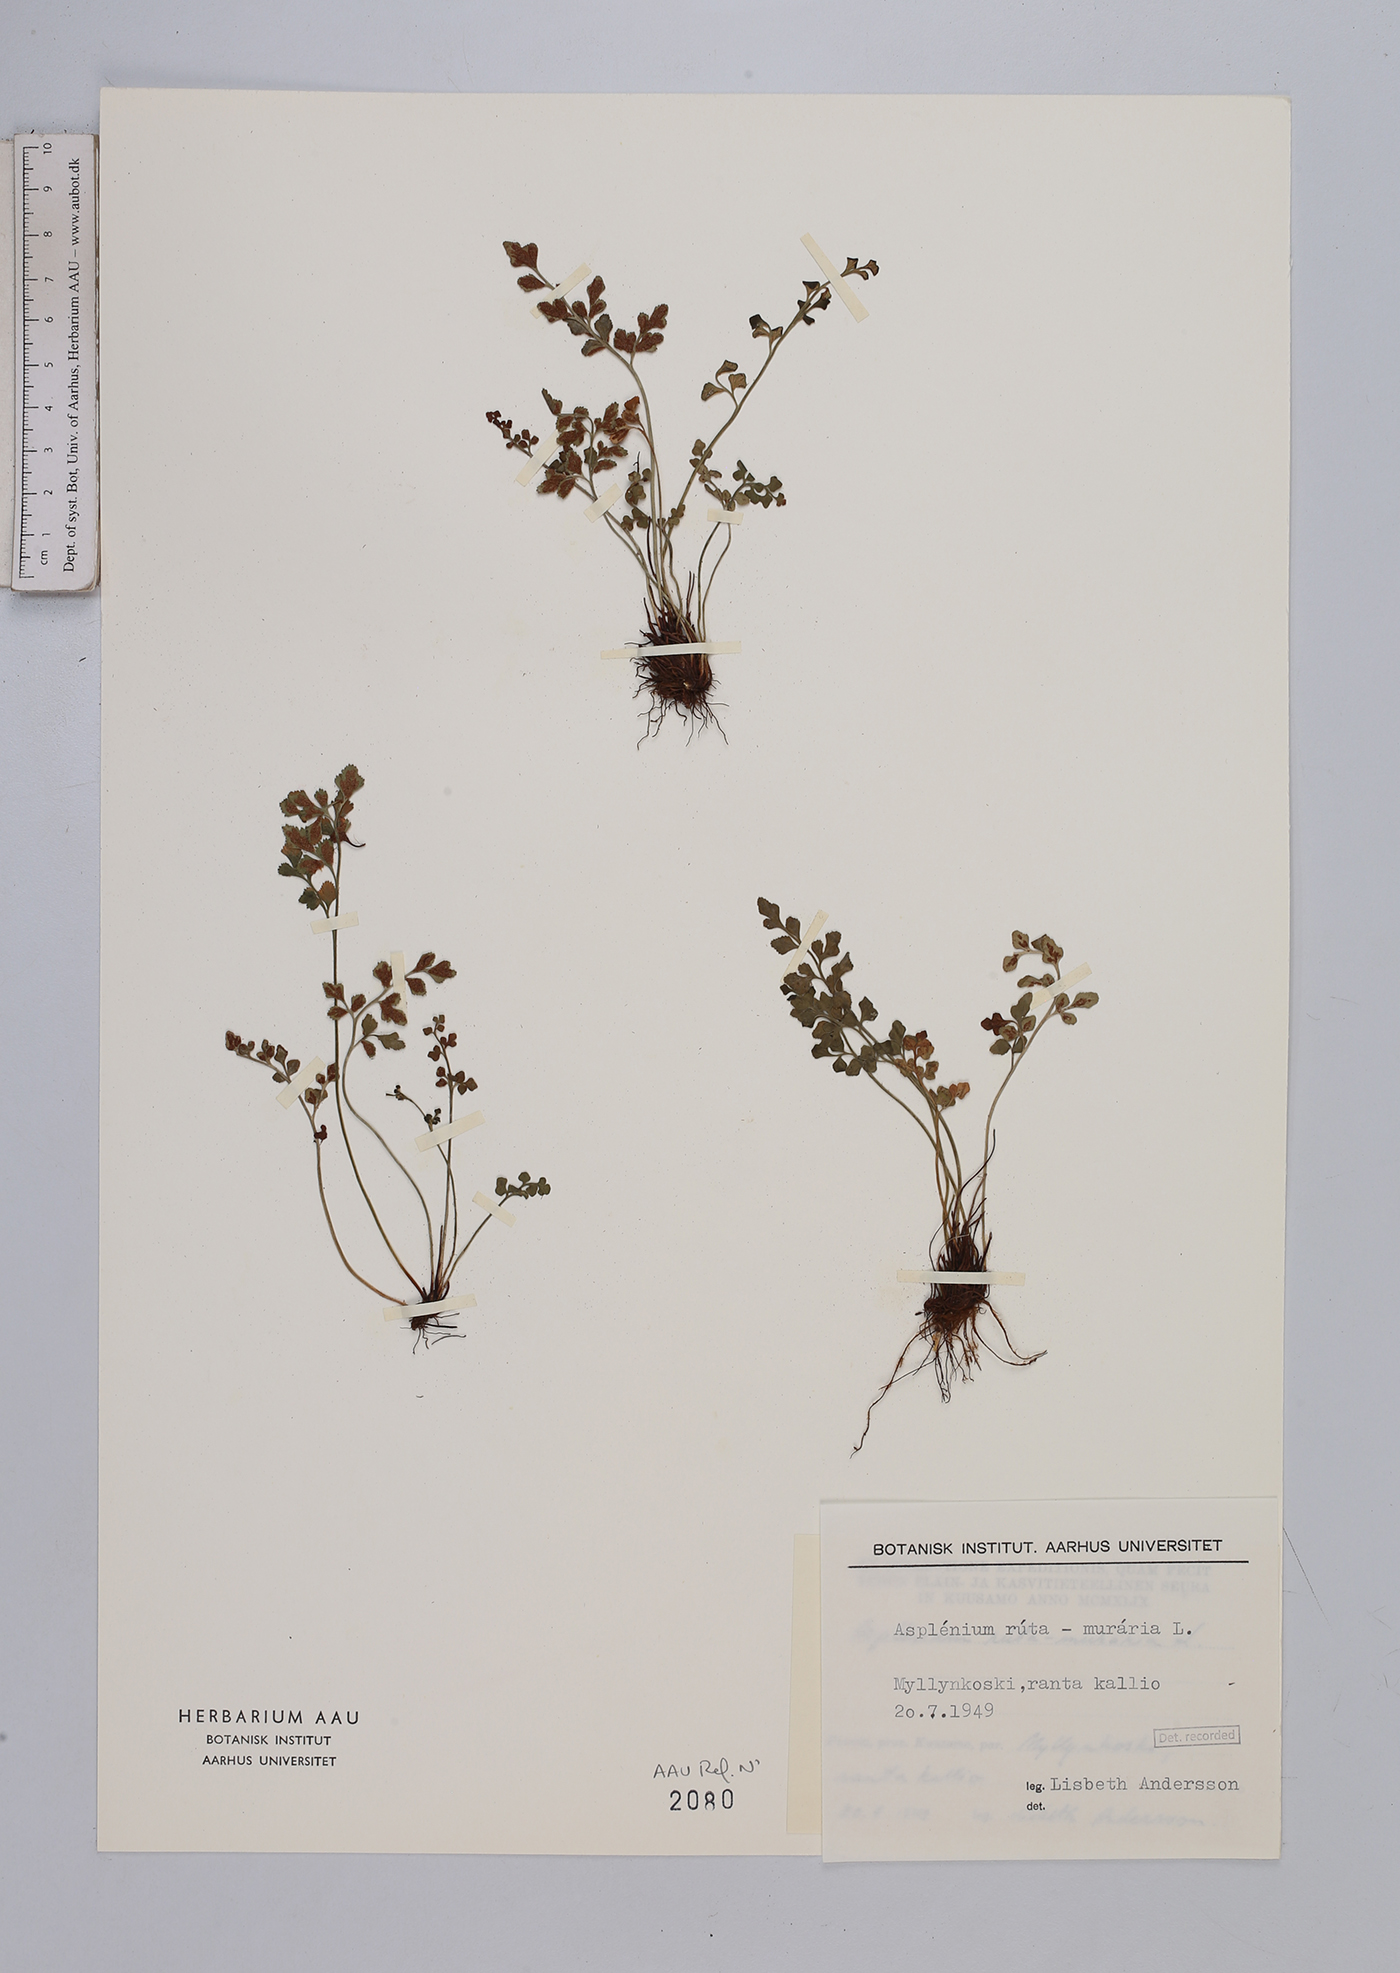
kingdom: Plantae
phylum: Tracheophyta
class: Polypodiopsida
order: Polypodiales
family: Aspleniaceae
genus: Asplenium
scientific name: Asplenium ruta-muraria
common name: Wall-rue
